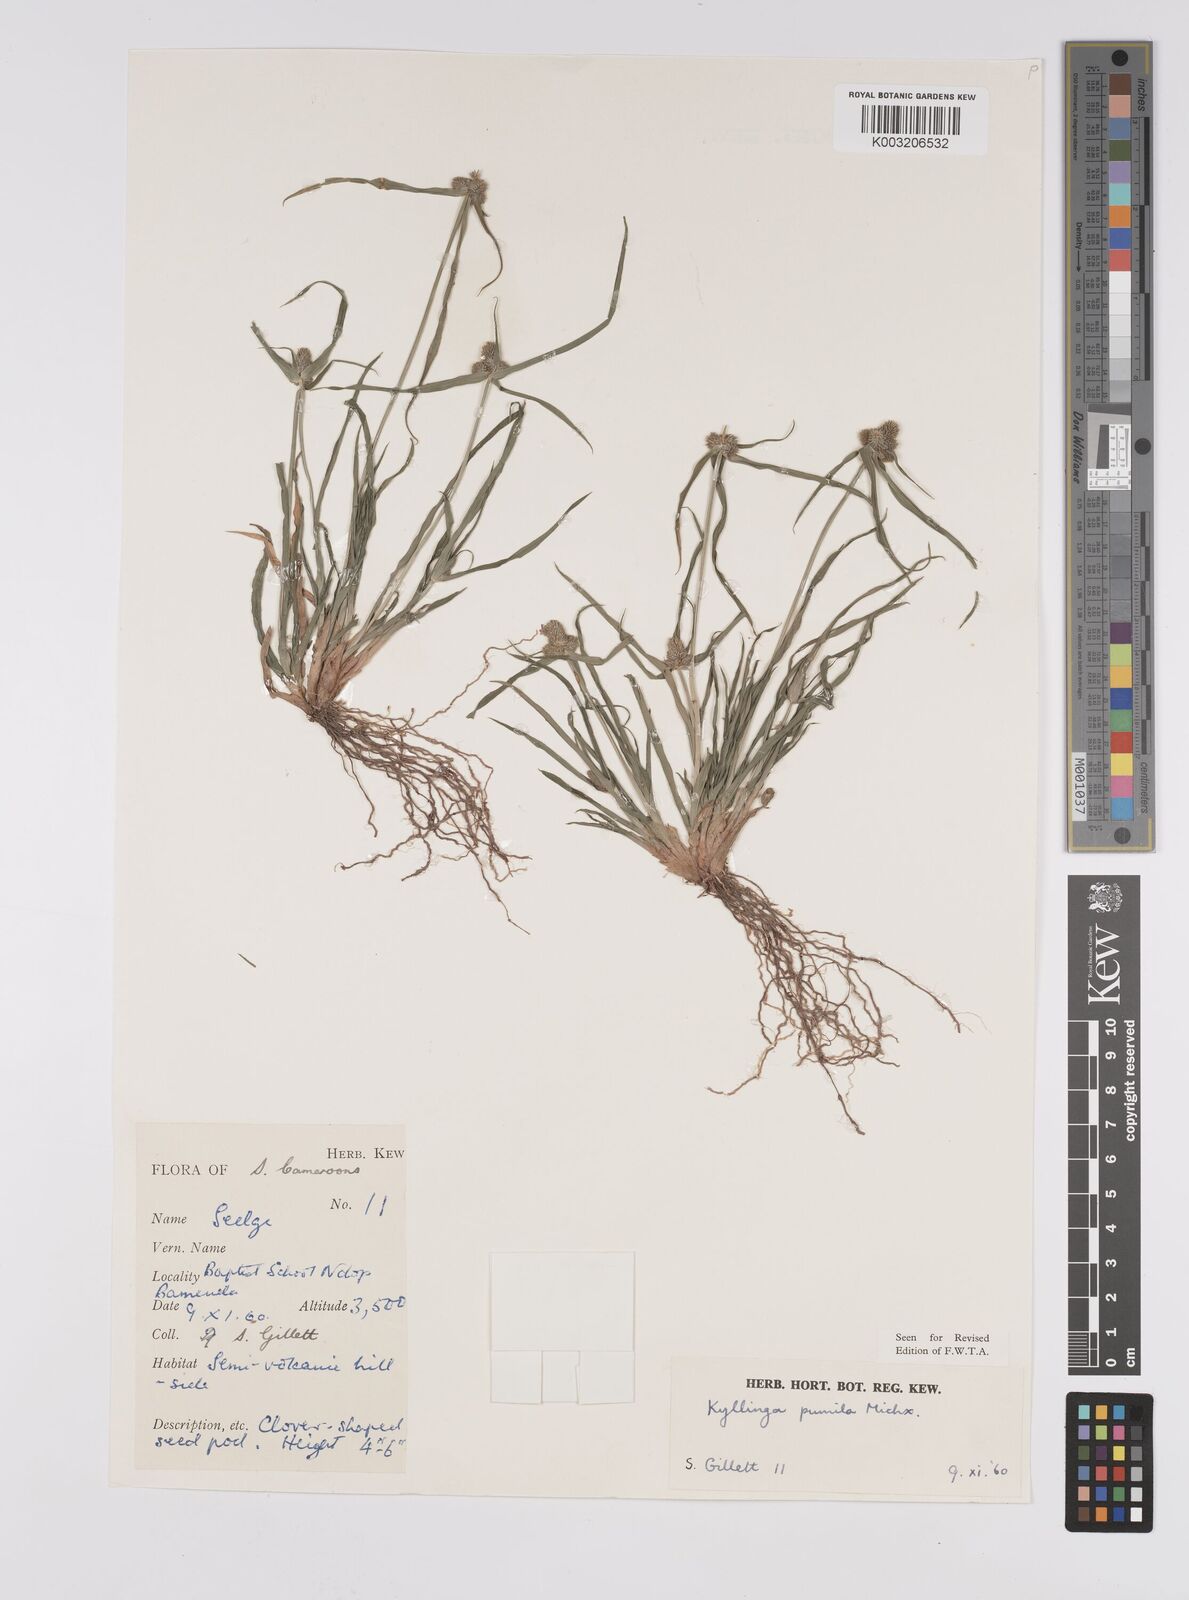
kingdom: Plantae
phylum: Tracheophyta
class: Liliopsida
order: Poales
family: Cyperaceae
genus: Cyperus
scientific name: Cyperus
